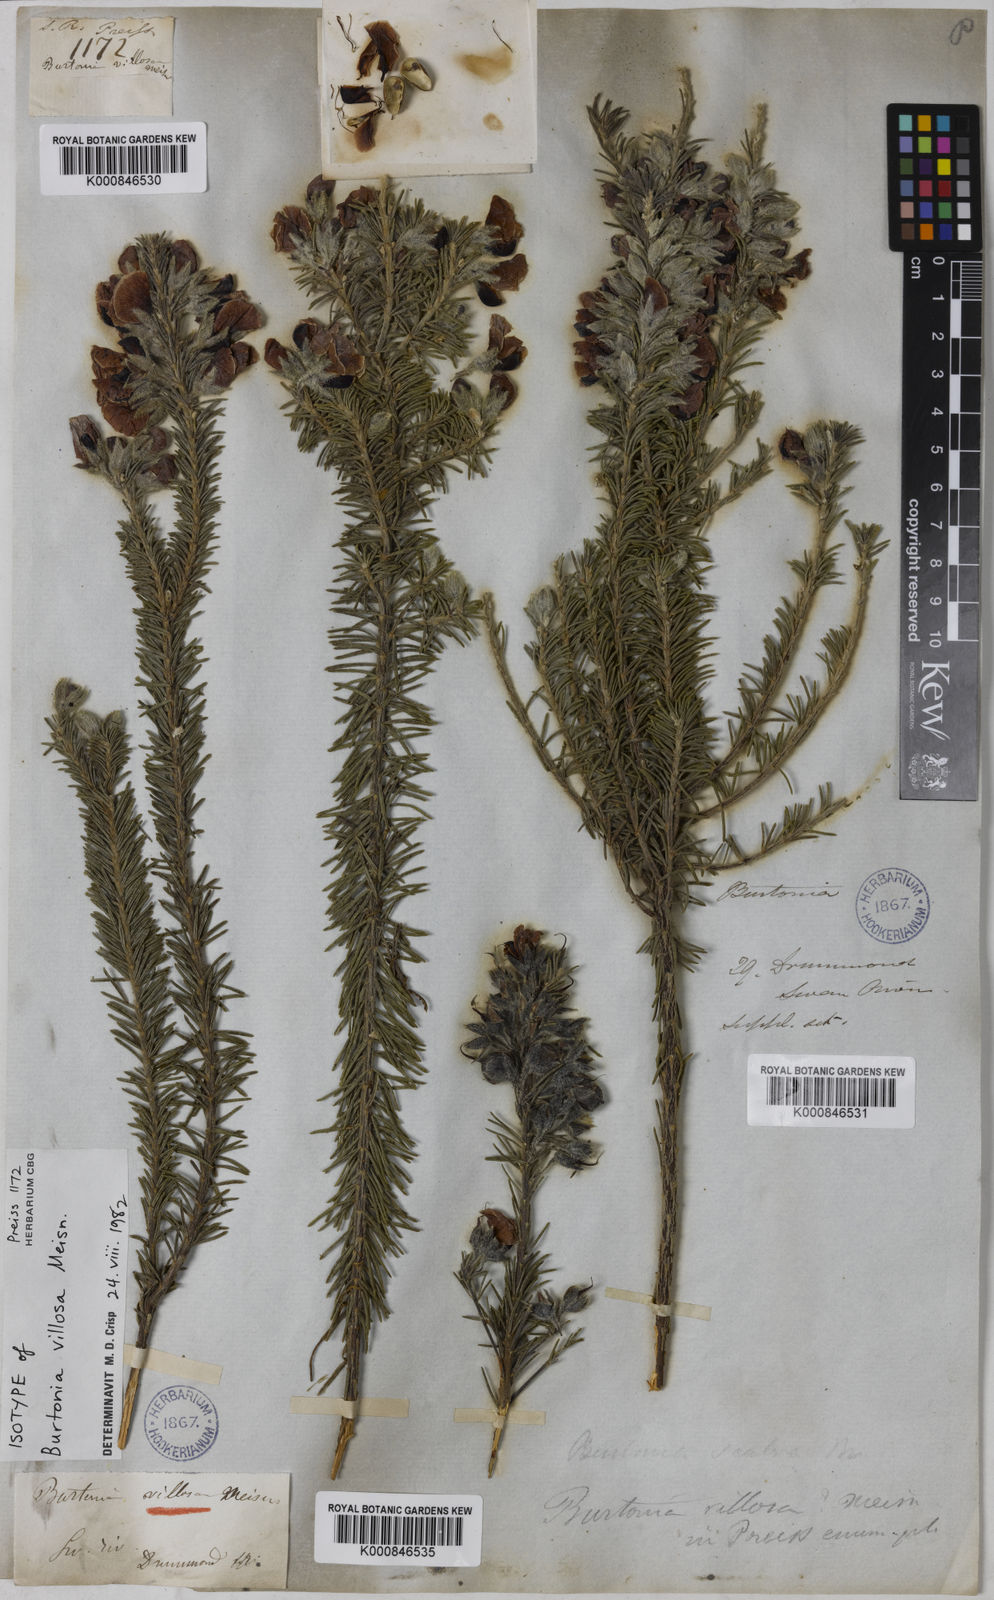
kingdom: Plantae
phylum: Tracheophyta
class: Magnoliopsida
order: Fabales
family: Fabaceae
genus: Gompholobium
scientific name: Gompholobium villosum
